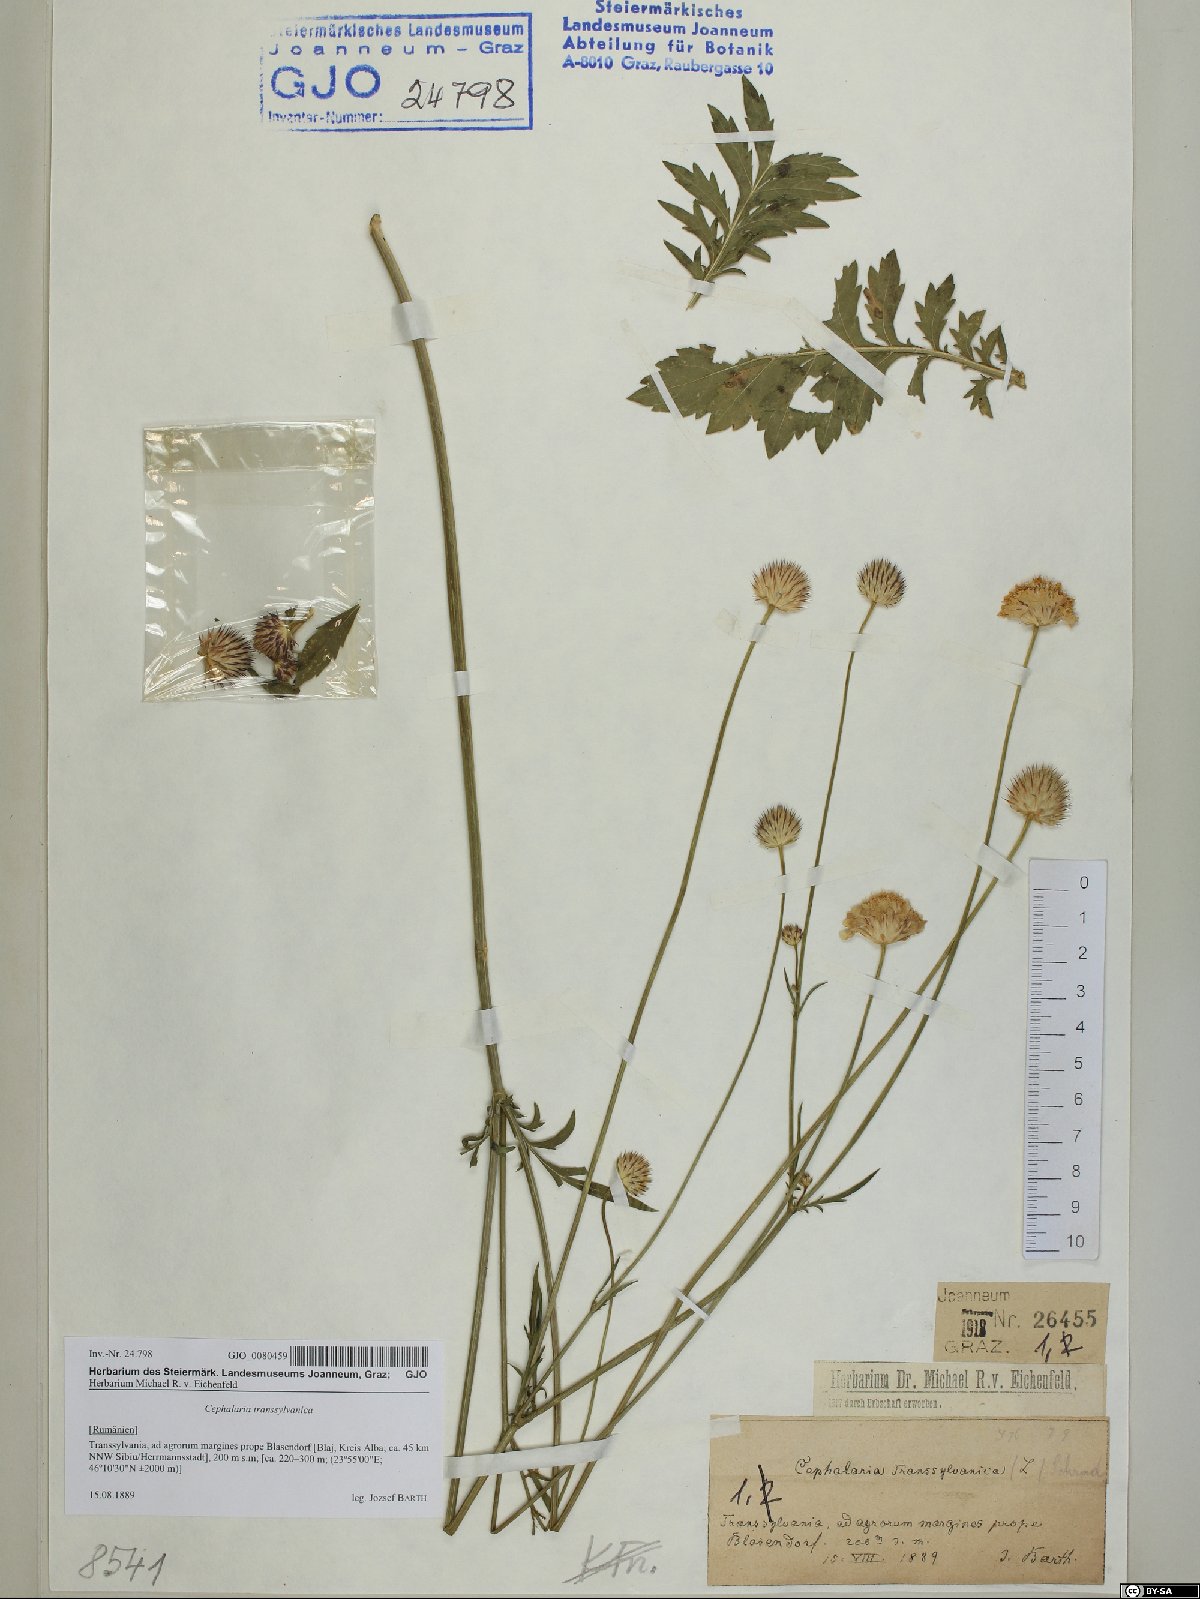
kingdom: Plantae
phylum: Tracheophyta
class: Magnoliopsida
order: Dipsacales
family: Caprifoliaceae
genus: Cephalaria
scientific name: Cephalaria transsylvanica
